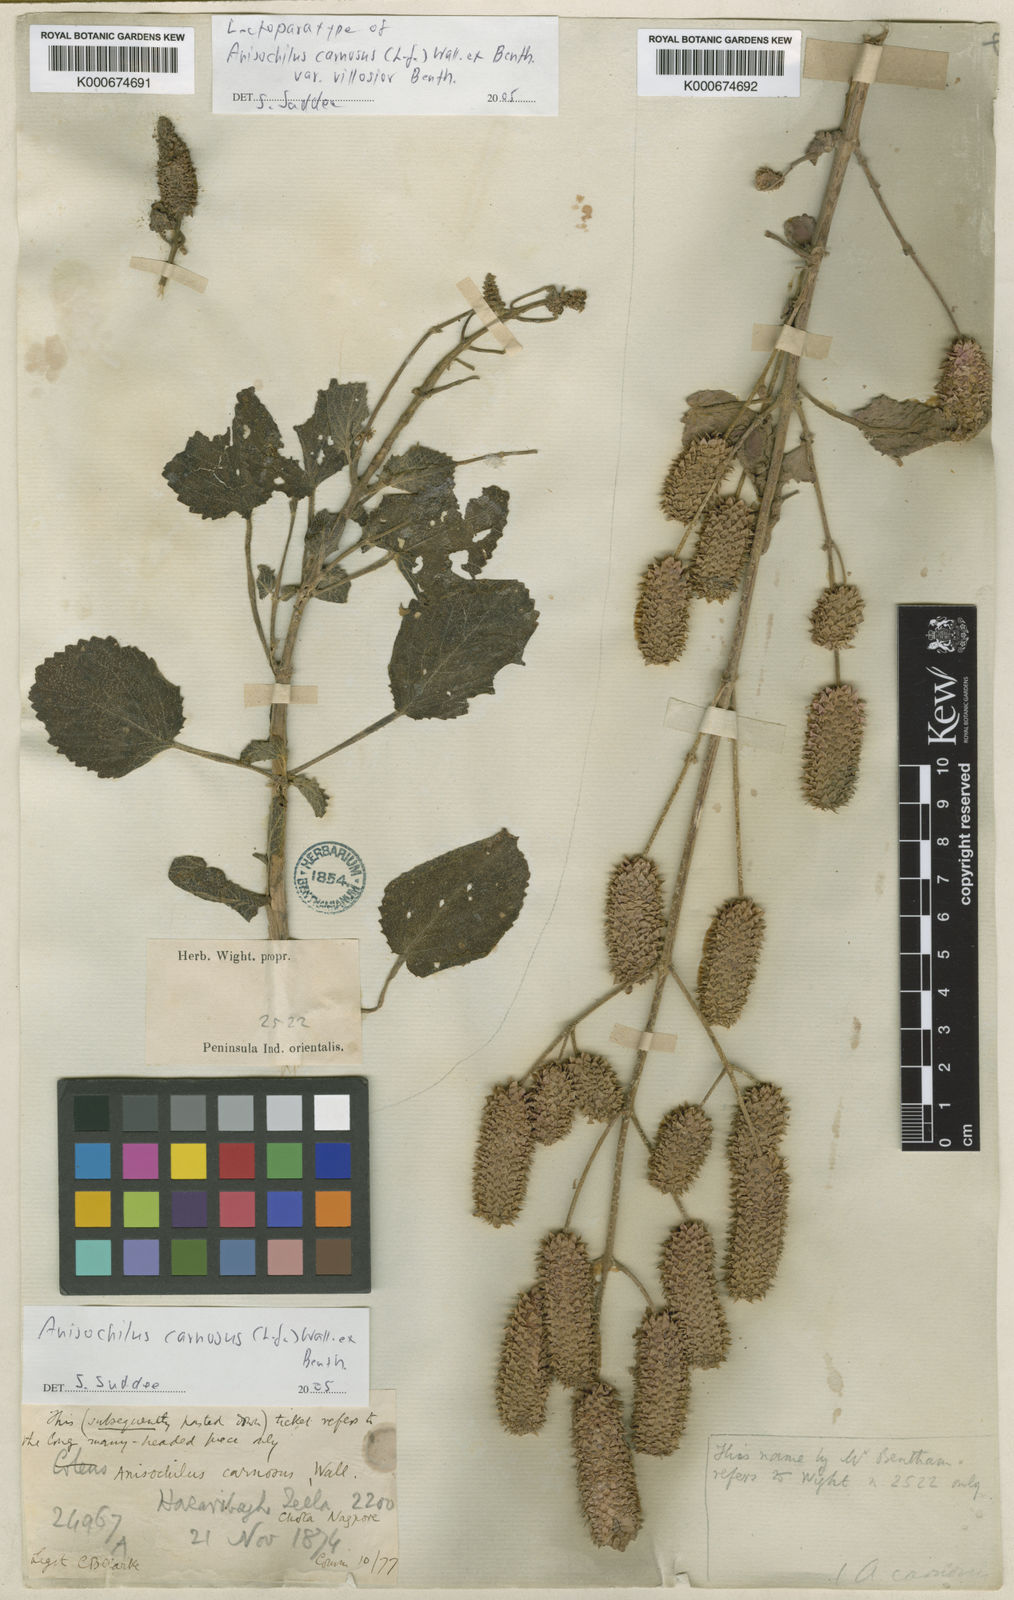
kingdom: Plantae
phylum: Tracheophyta
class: Magnoliopsida
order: Lamiales
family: Lamiaceae
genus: Anisochilus
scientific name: Anisochilus
